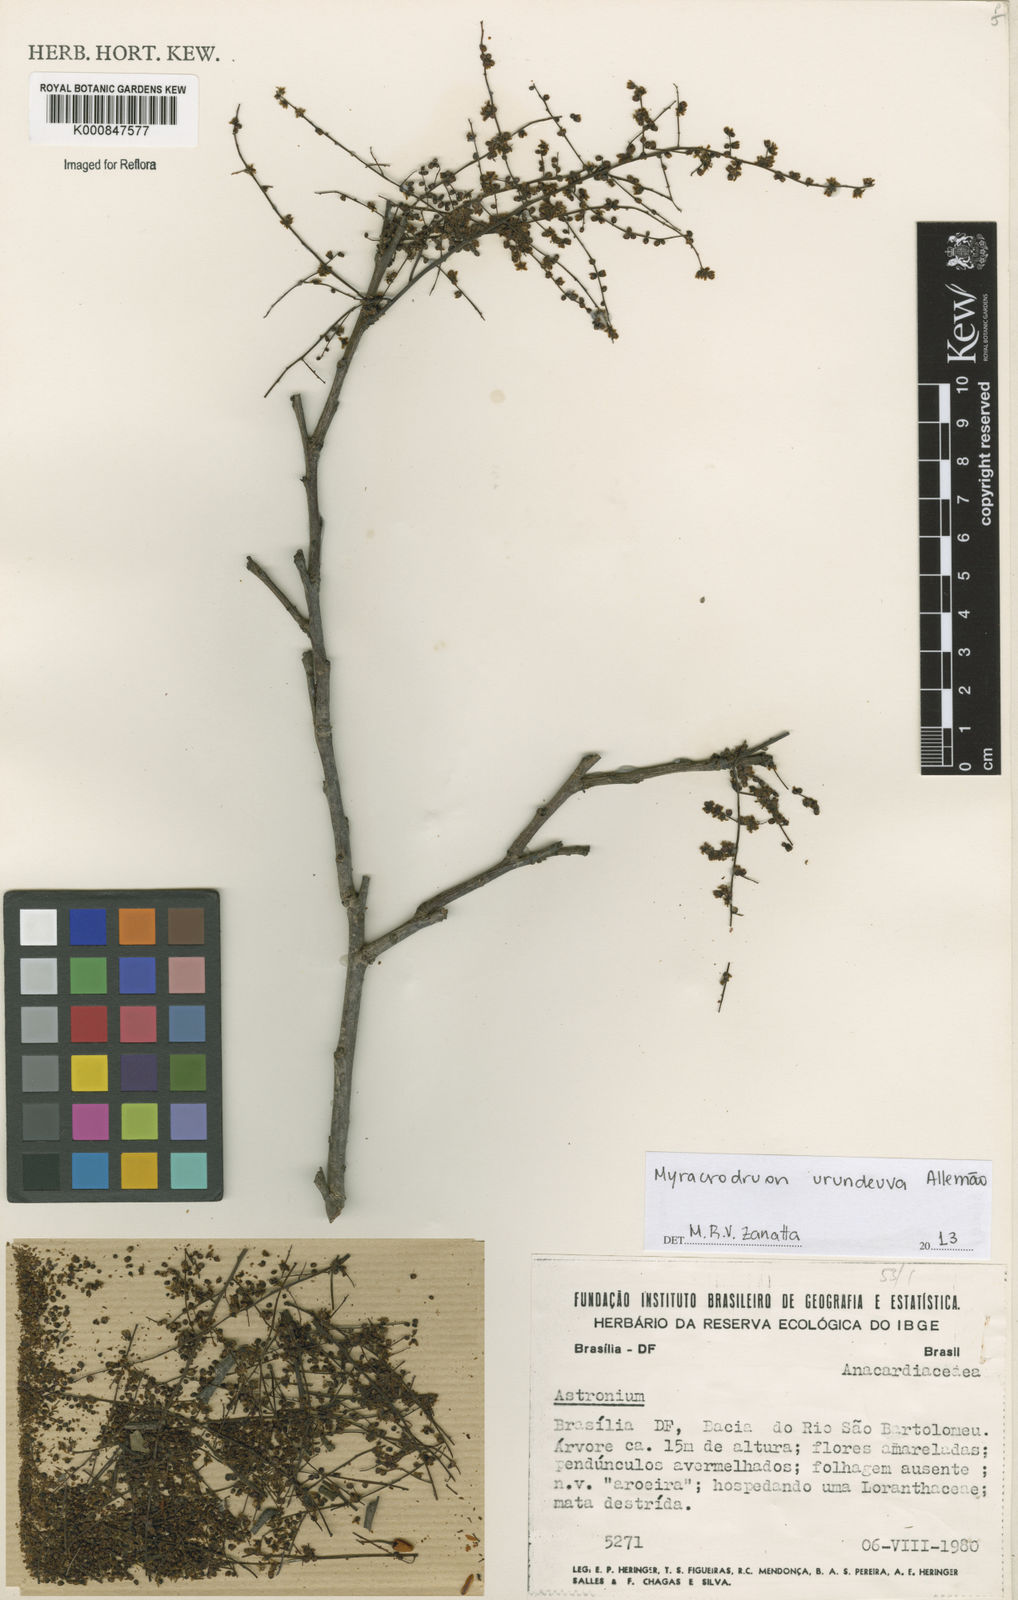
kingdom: Plantae
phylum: Tracheophyta
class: Magnoliopsida
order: Sapindales
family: Anacardiaceae
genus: Astronium
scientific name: Astronium
